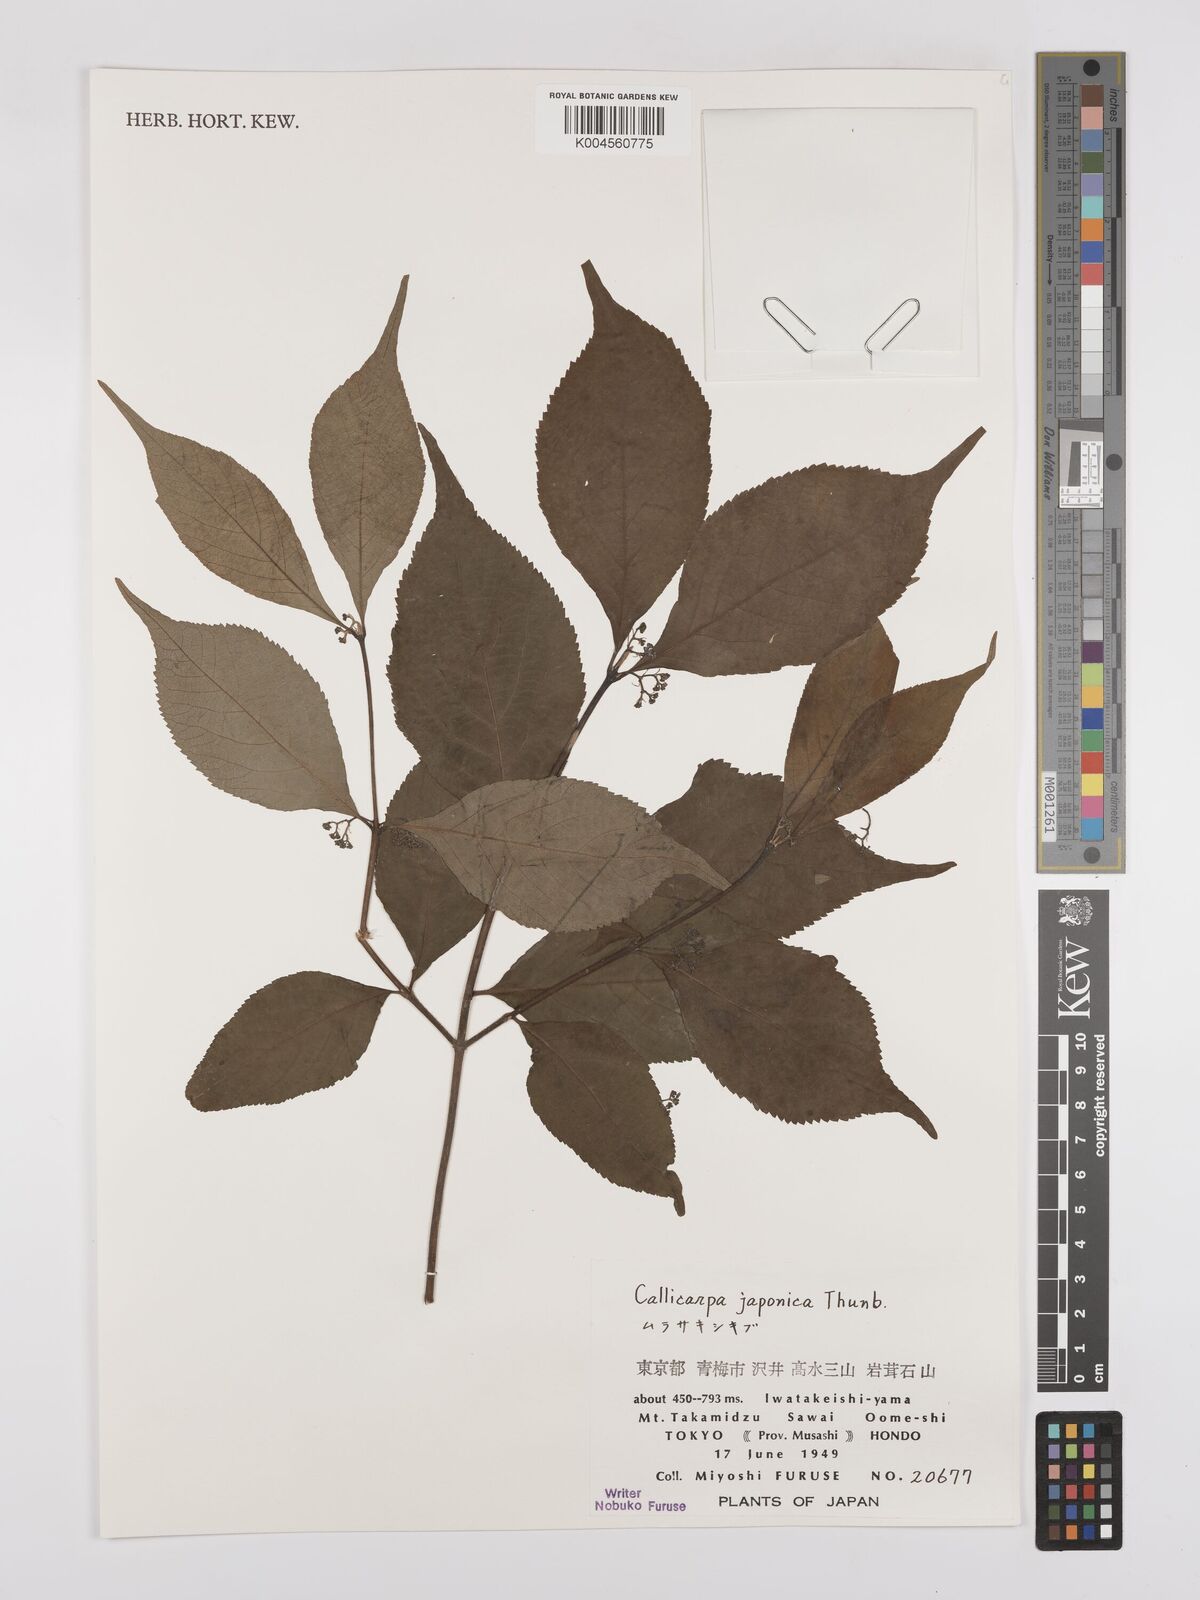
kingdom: Plantae
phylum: Tracheophyta
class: Magnoliopsida
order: Lamiales
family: Lamiaceae
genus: Callicarpa
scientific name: Callicarpa japonica
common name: Japanese beauty-berry
